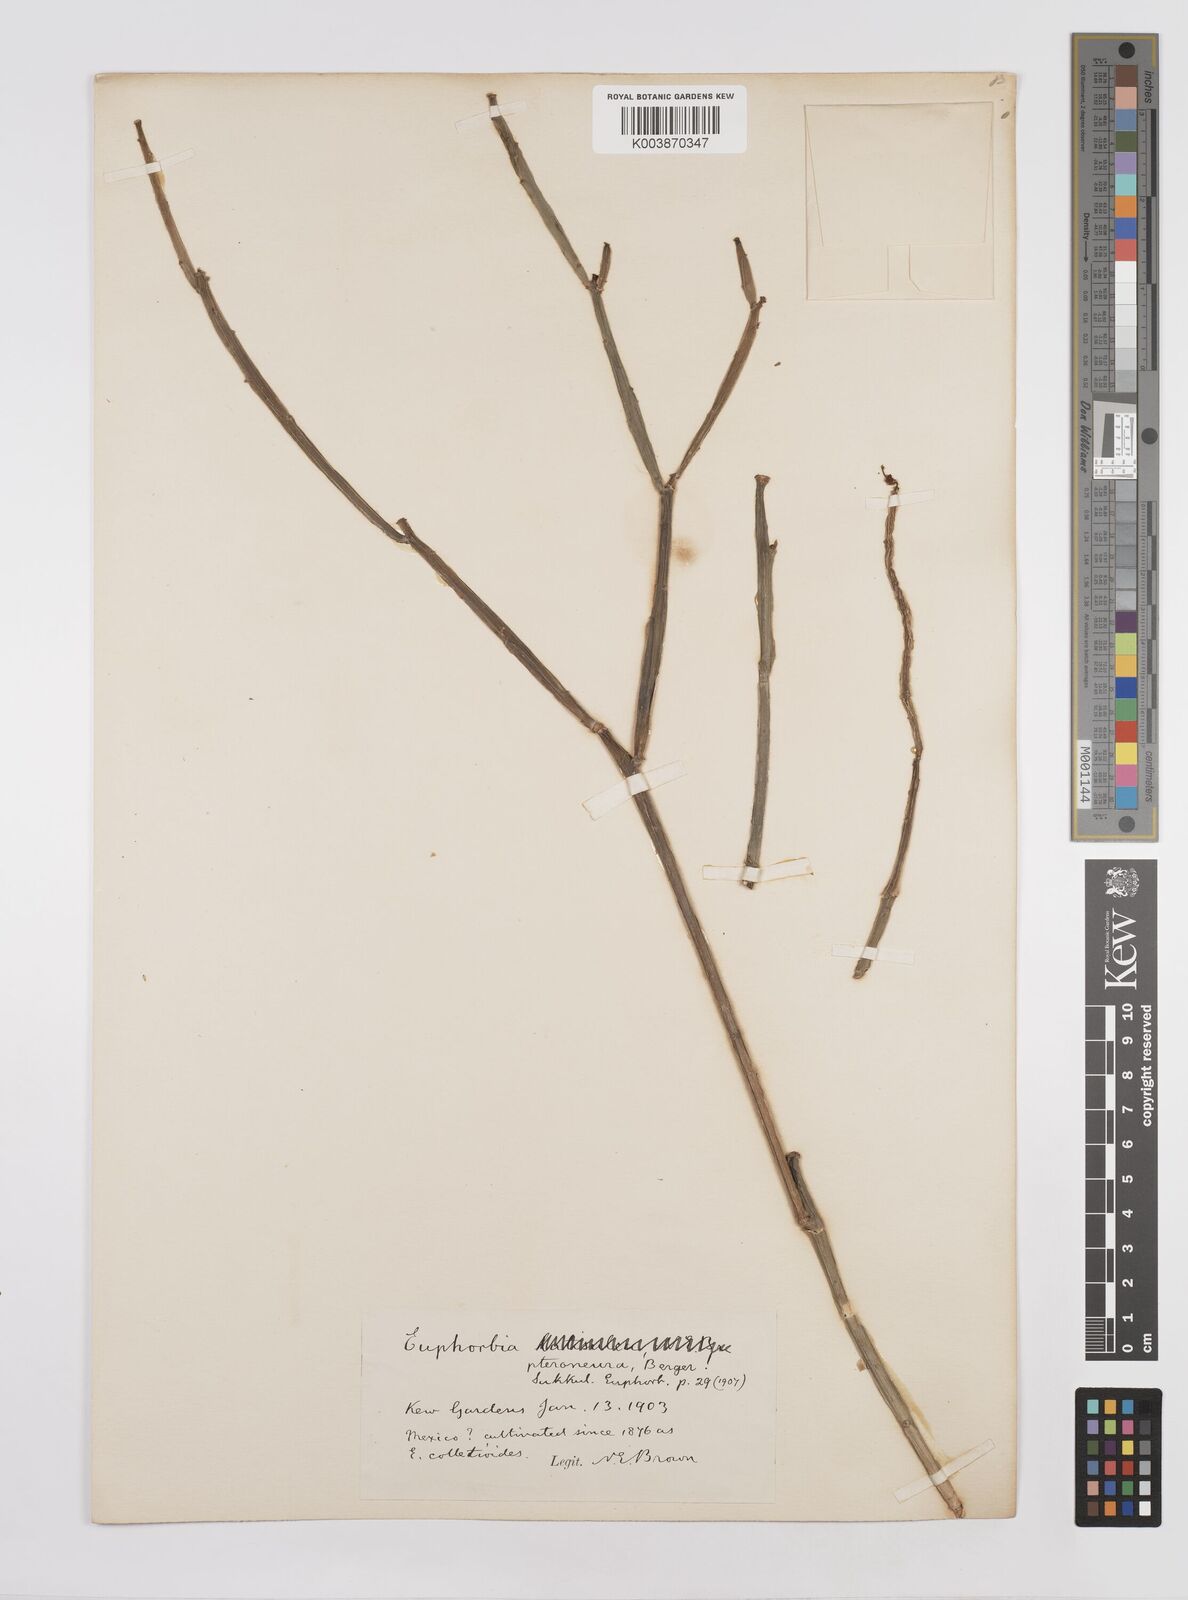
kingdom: Plantae
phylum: Tracheophyta
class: Magnoliopsida
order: Malpighiales
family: Euphorbiaceae
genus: Euphorbia
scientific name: Euphorbia pteroneura
